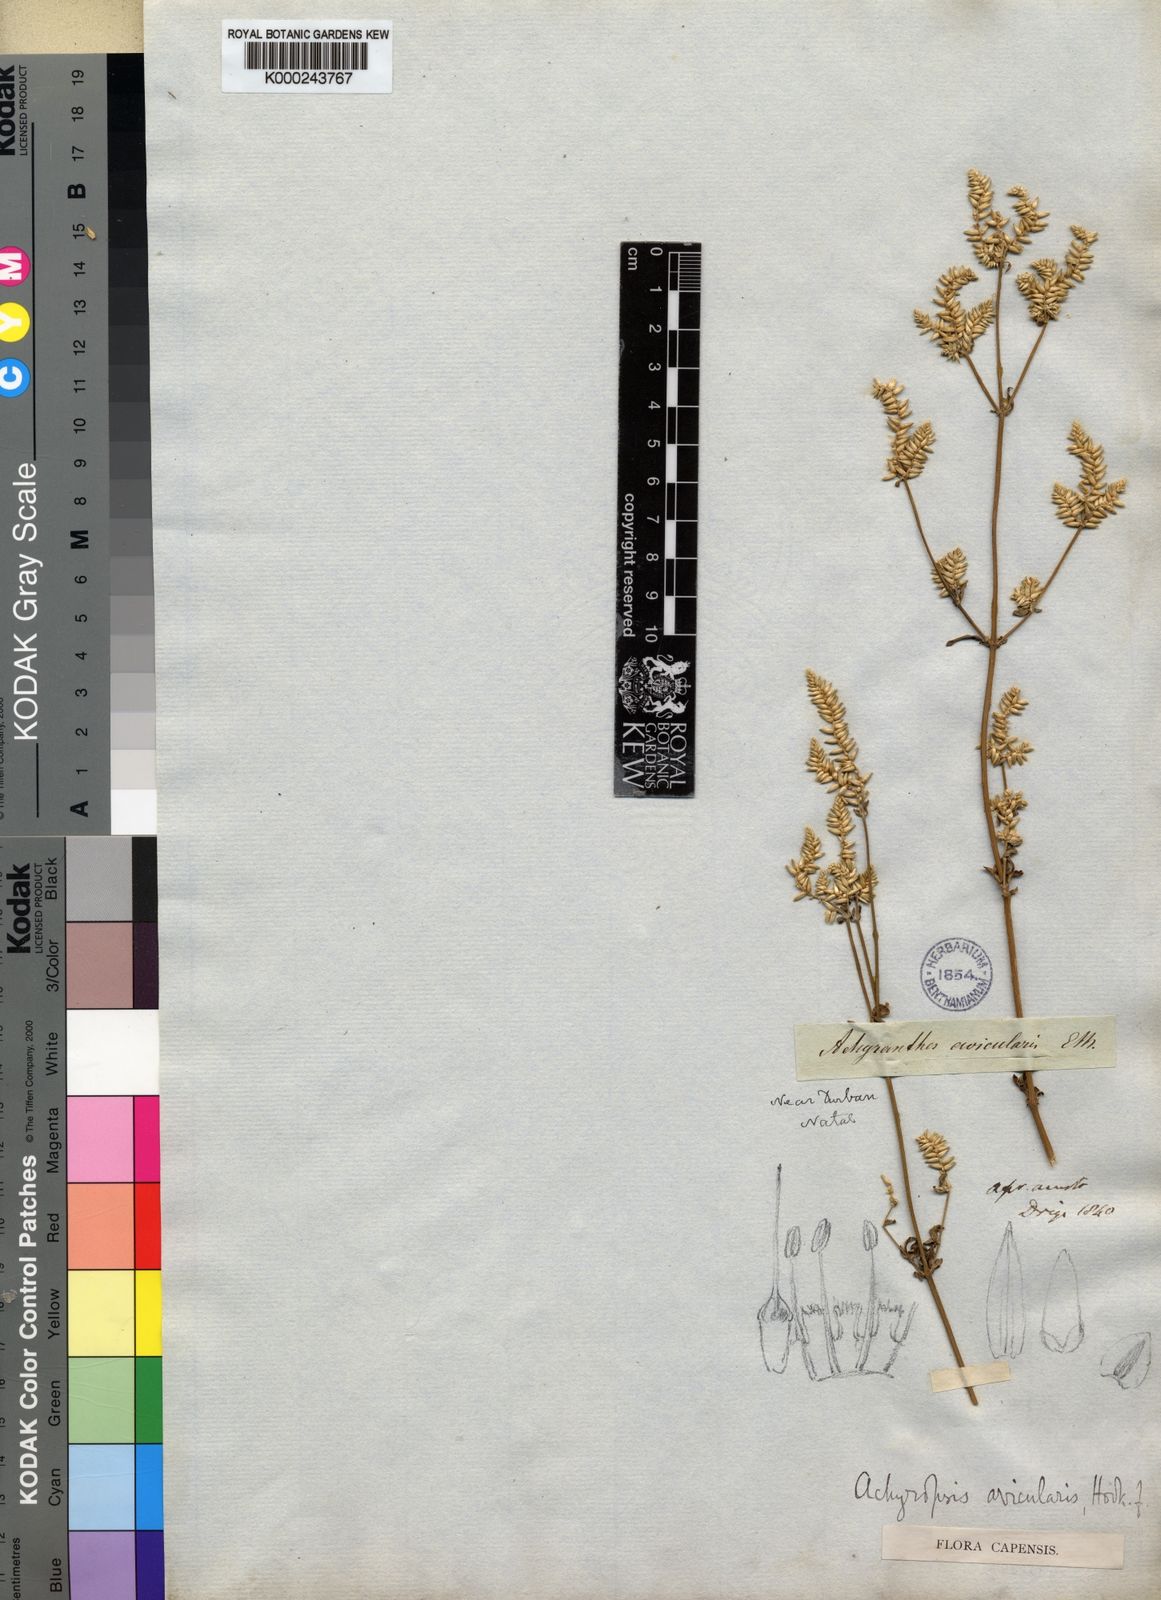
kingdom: Plantae
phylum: Tracheophyta
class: Magnoliopsida
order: Caryophyllales
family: Amaranthaceae
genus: Achyropsis
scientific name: Achyropsis
